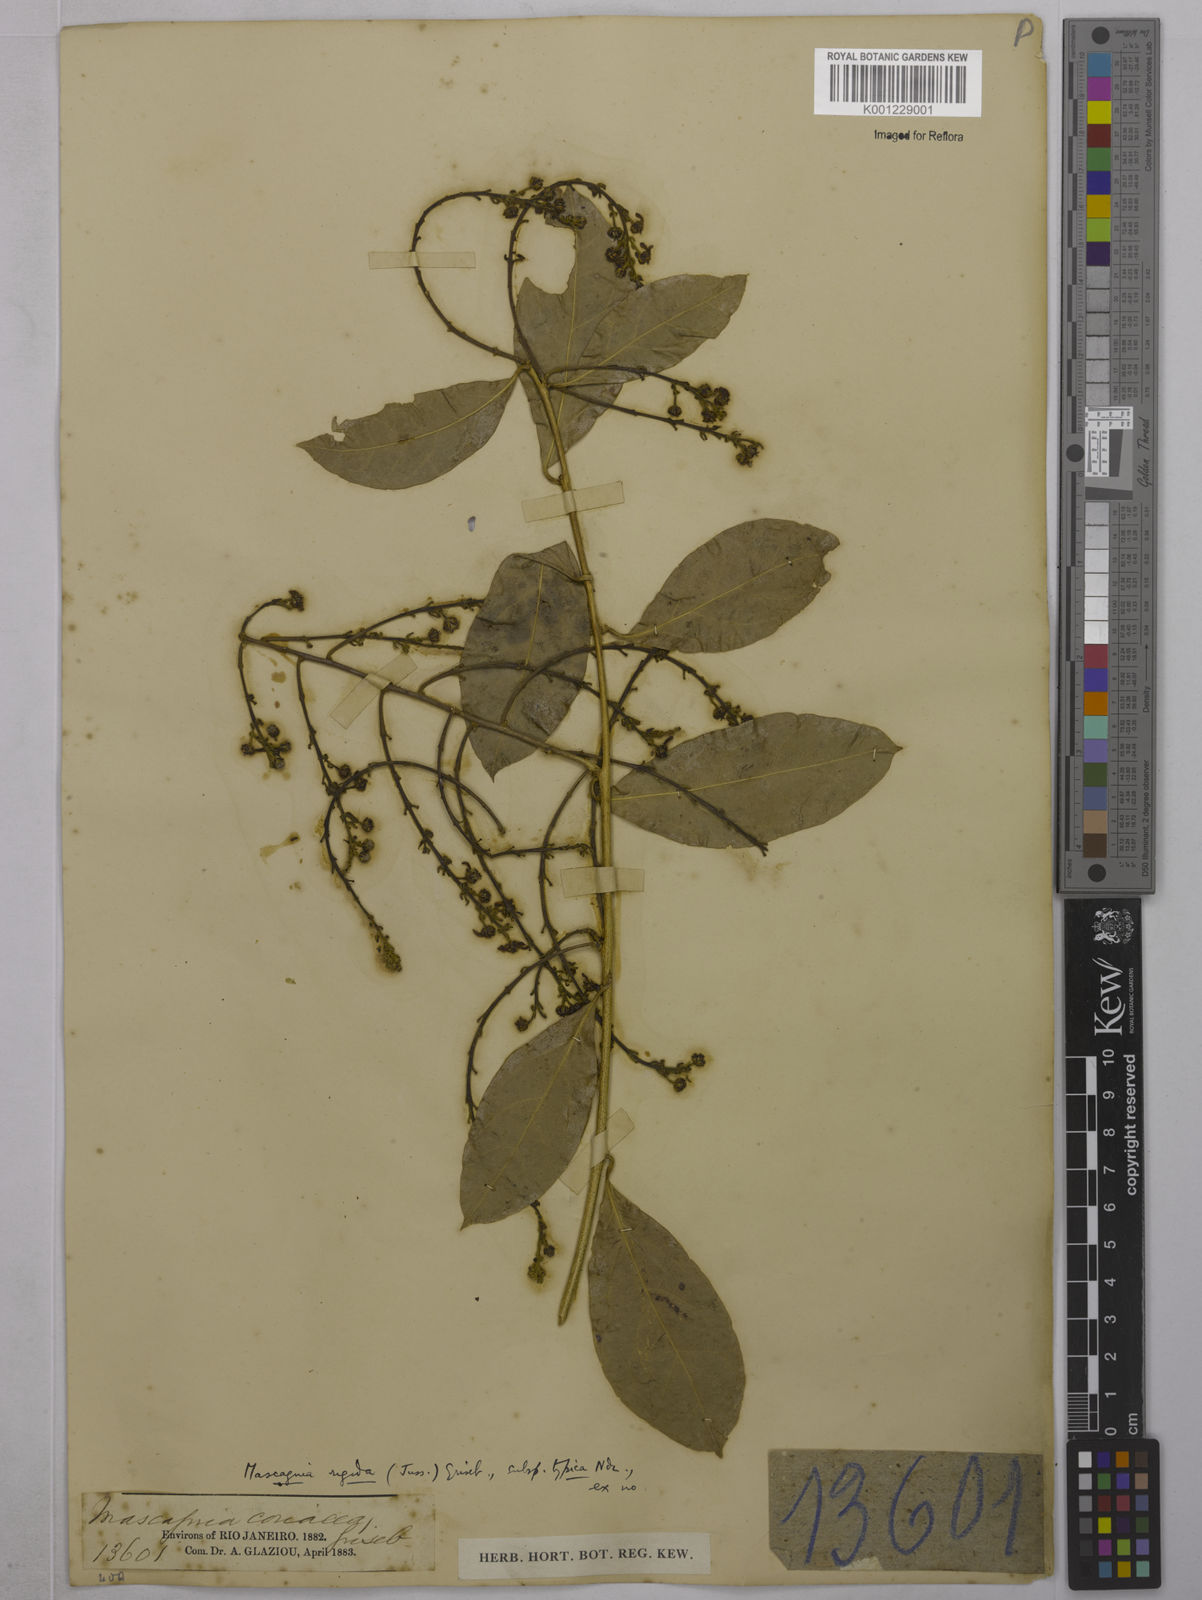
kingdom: Plantae
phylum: Tracheophyta
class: Magnoliopsida
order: Malpighiales
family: Malpighiaceae
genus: Amorimia
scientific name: Amorimia rigida
